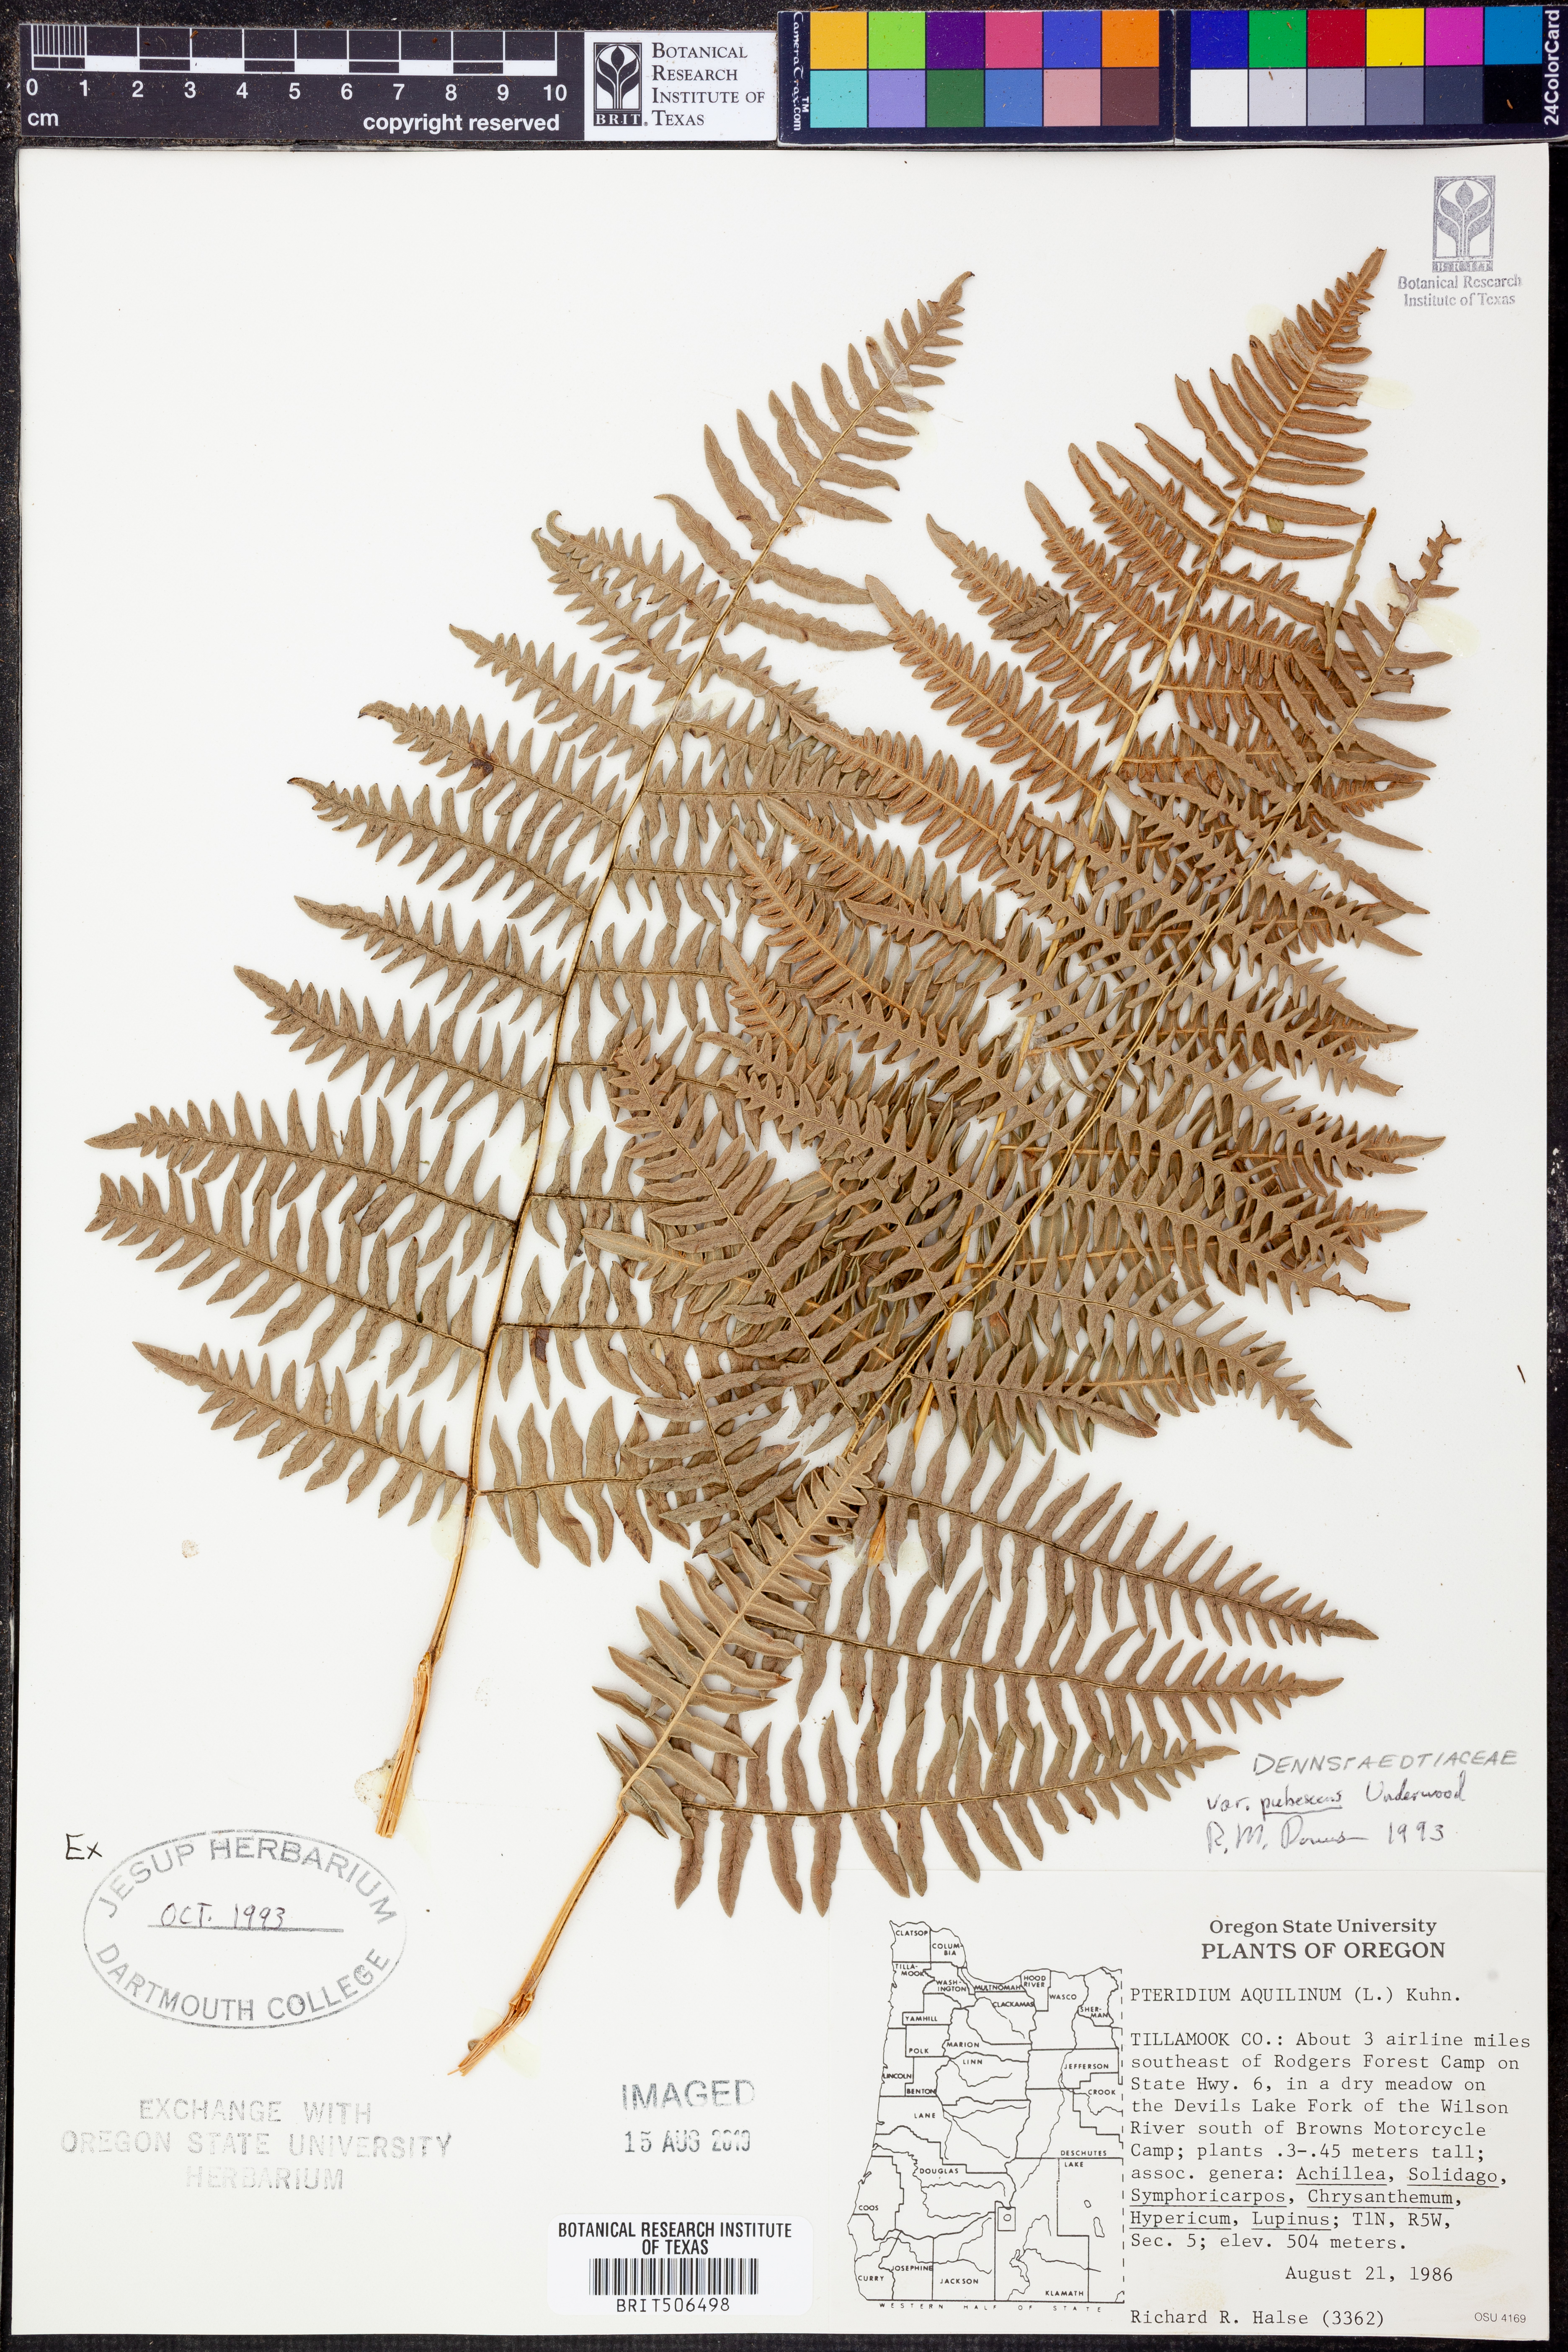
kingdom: Plantae
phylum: Tracheophyta
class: Polypodiopsida
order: Polypodiales
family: Dennstaedtiaceae
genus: Pteridium
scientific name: Pteridium aquilinum
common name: Bracken
